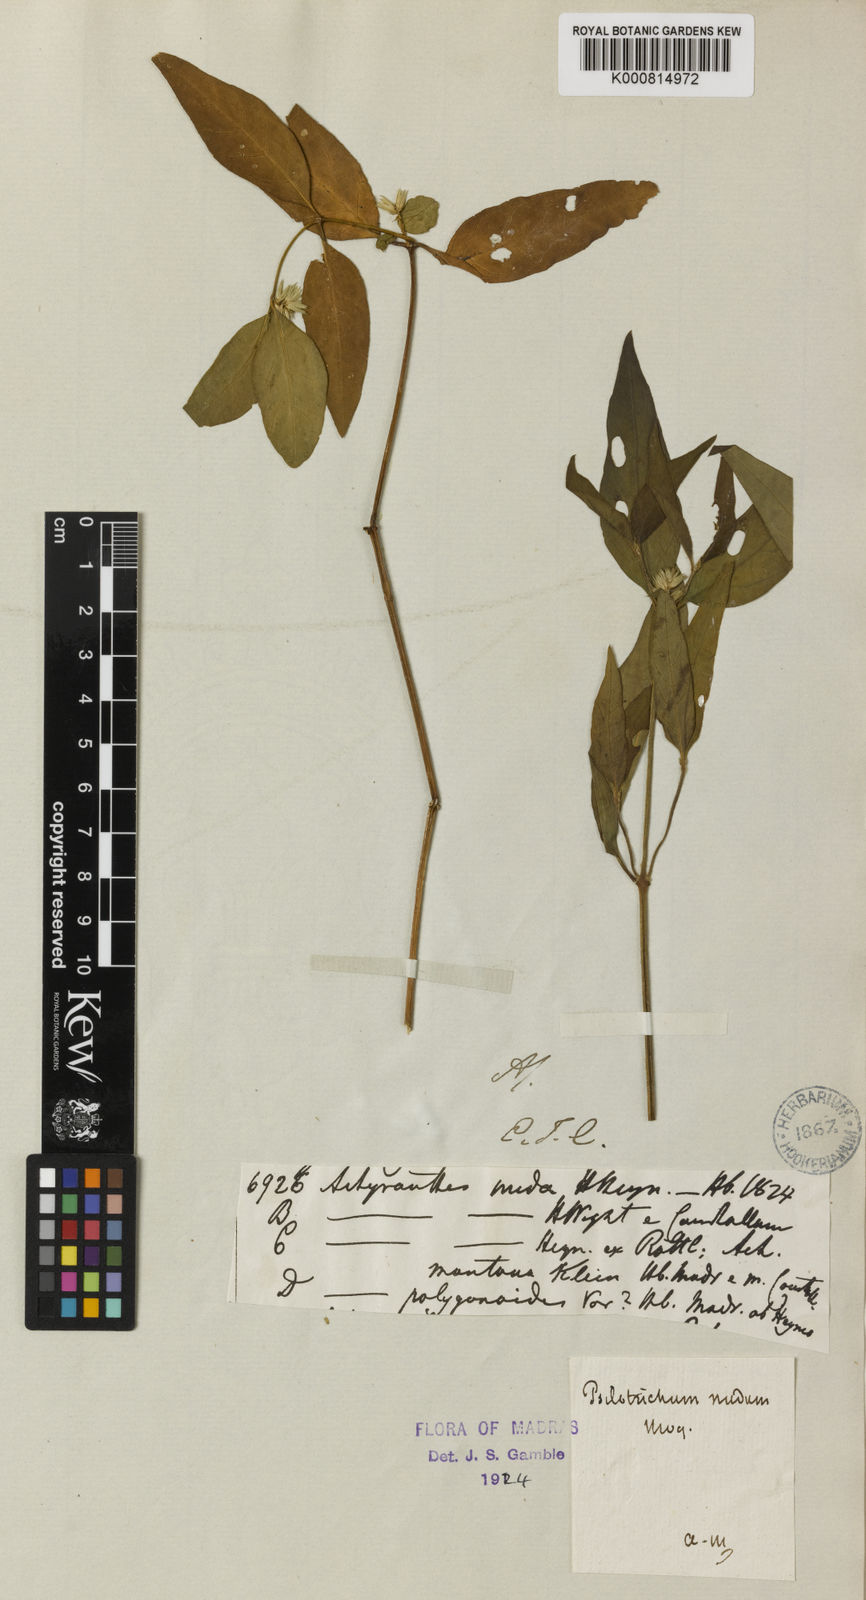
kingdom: Plantae
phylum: Tracheophyta
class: Magnoliopsida
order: Caryophyllales
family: Amaranthaceae
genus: Psilotrichum
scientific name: Psilotrichum
